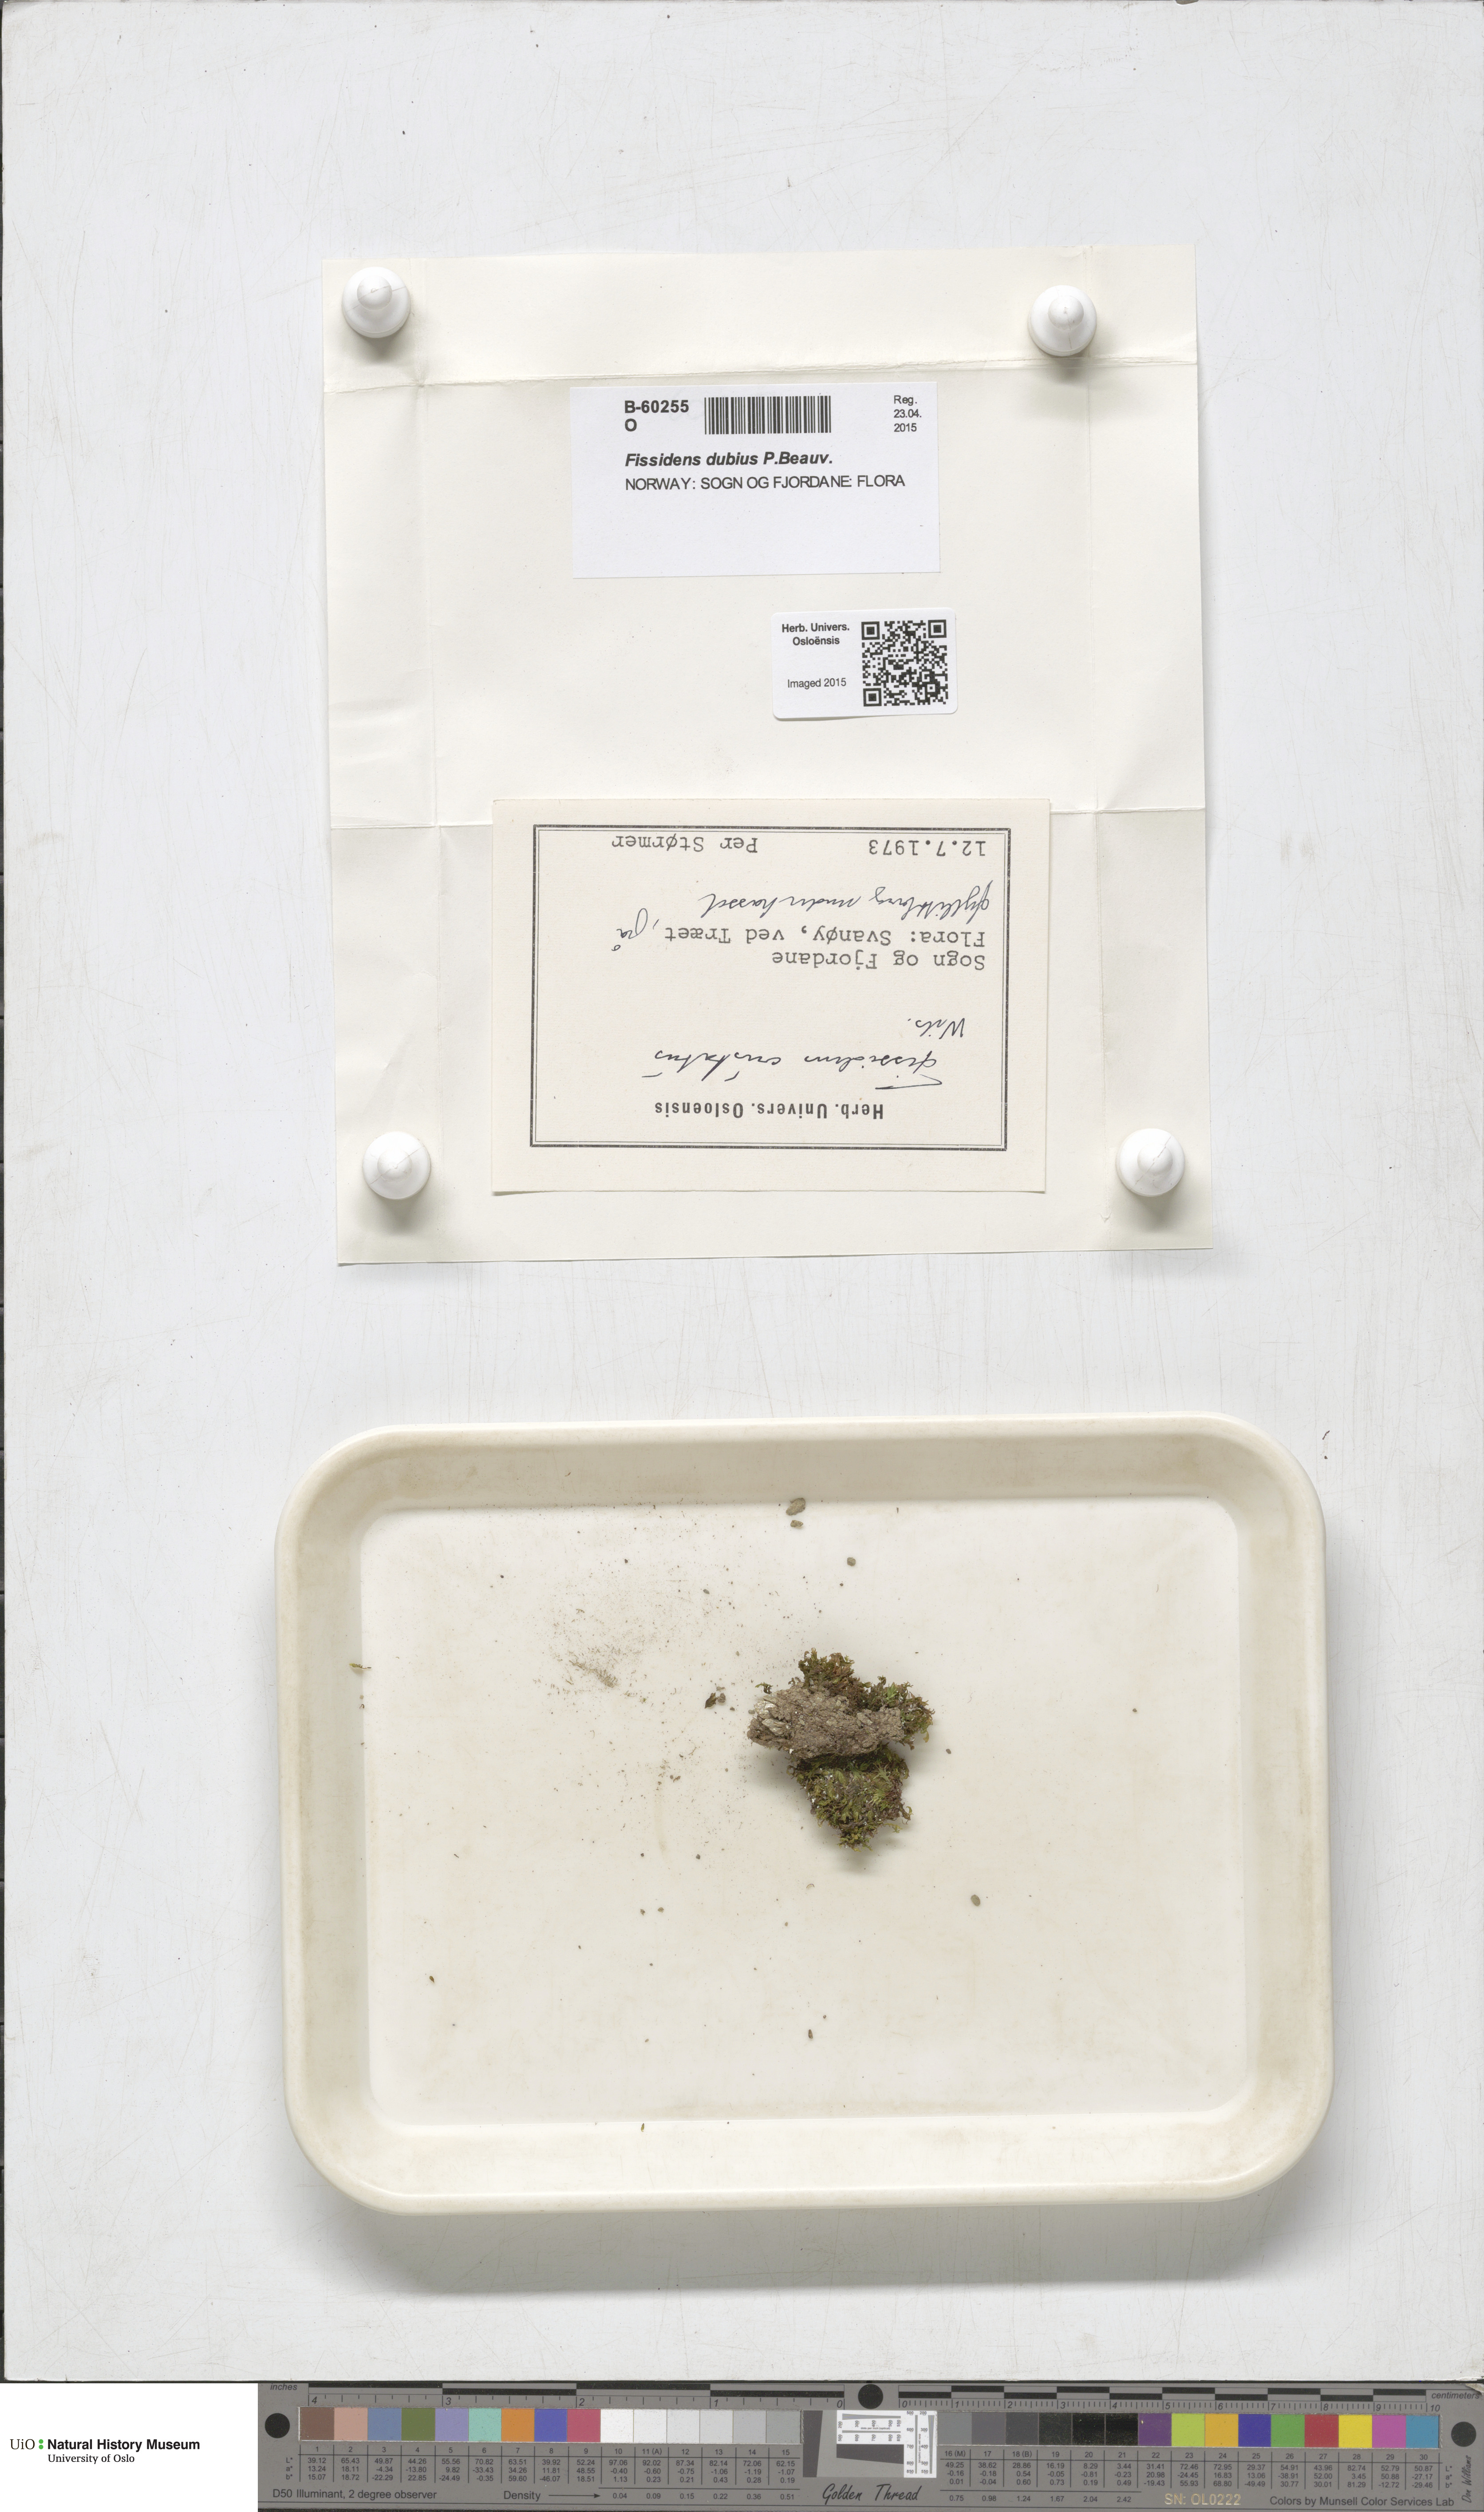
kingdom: Plantae
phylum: Bryophyta
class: Bryopsida
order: Dicranales
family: Fissidentaceae
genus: Fissidens
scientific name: Fissidens dubius
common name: Rock pocket moss
